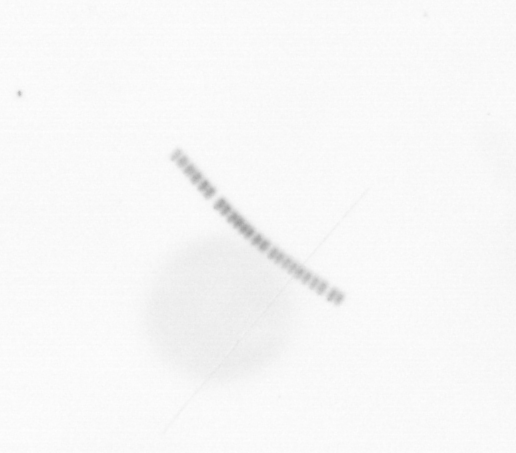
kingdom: Chromista
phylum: Ochrophyta
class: Bacillariophyceae
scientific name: Bacillariophyceae
